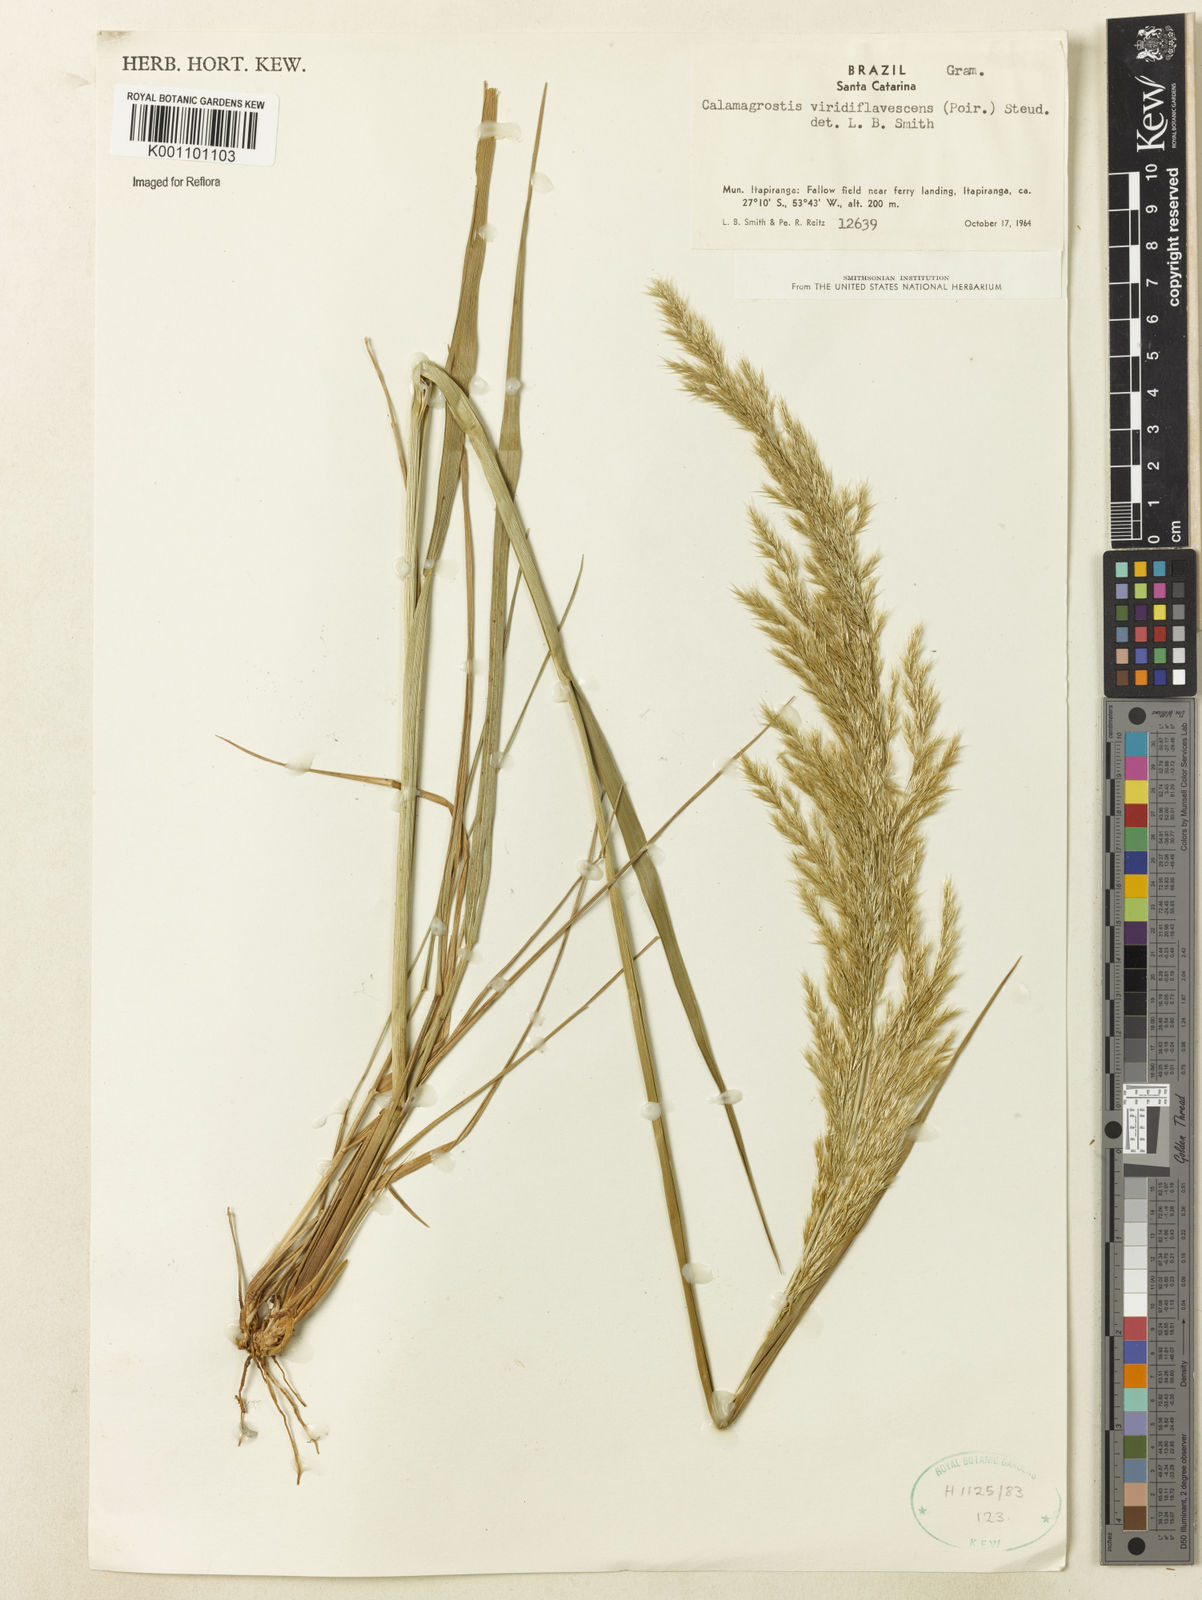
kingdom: Plantae
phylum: Tracheophyta
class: Liliopsida
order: Poales
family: Poaceae
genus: Cinnagrostis
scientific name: Cinnagrostis viridiflavescens
